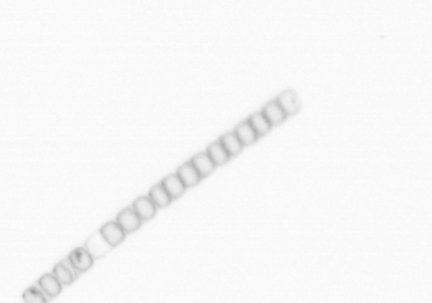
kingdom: Chromista
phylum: Ochrophyta
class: Bacillariophyceae
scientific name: Bacillariophyceae
